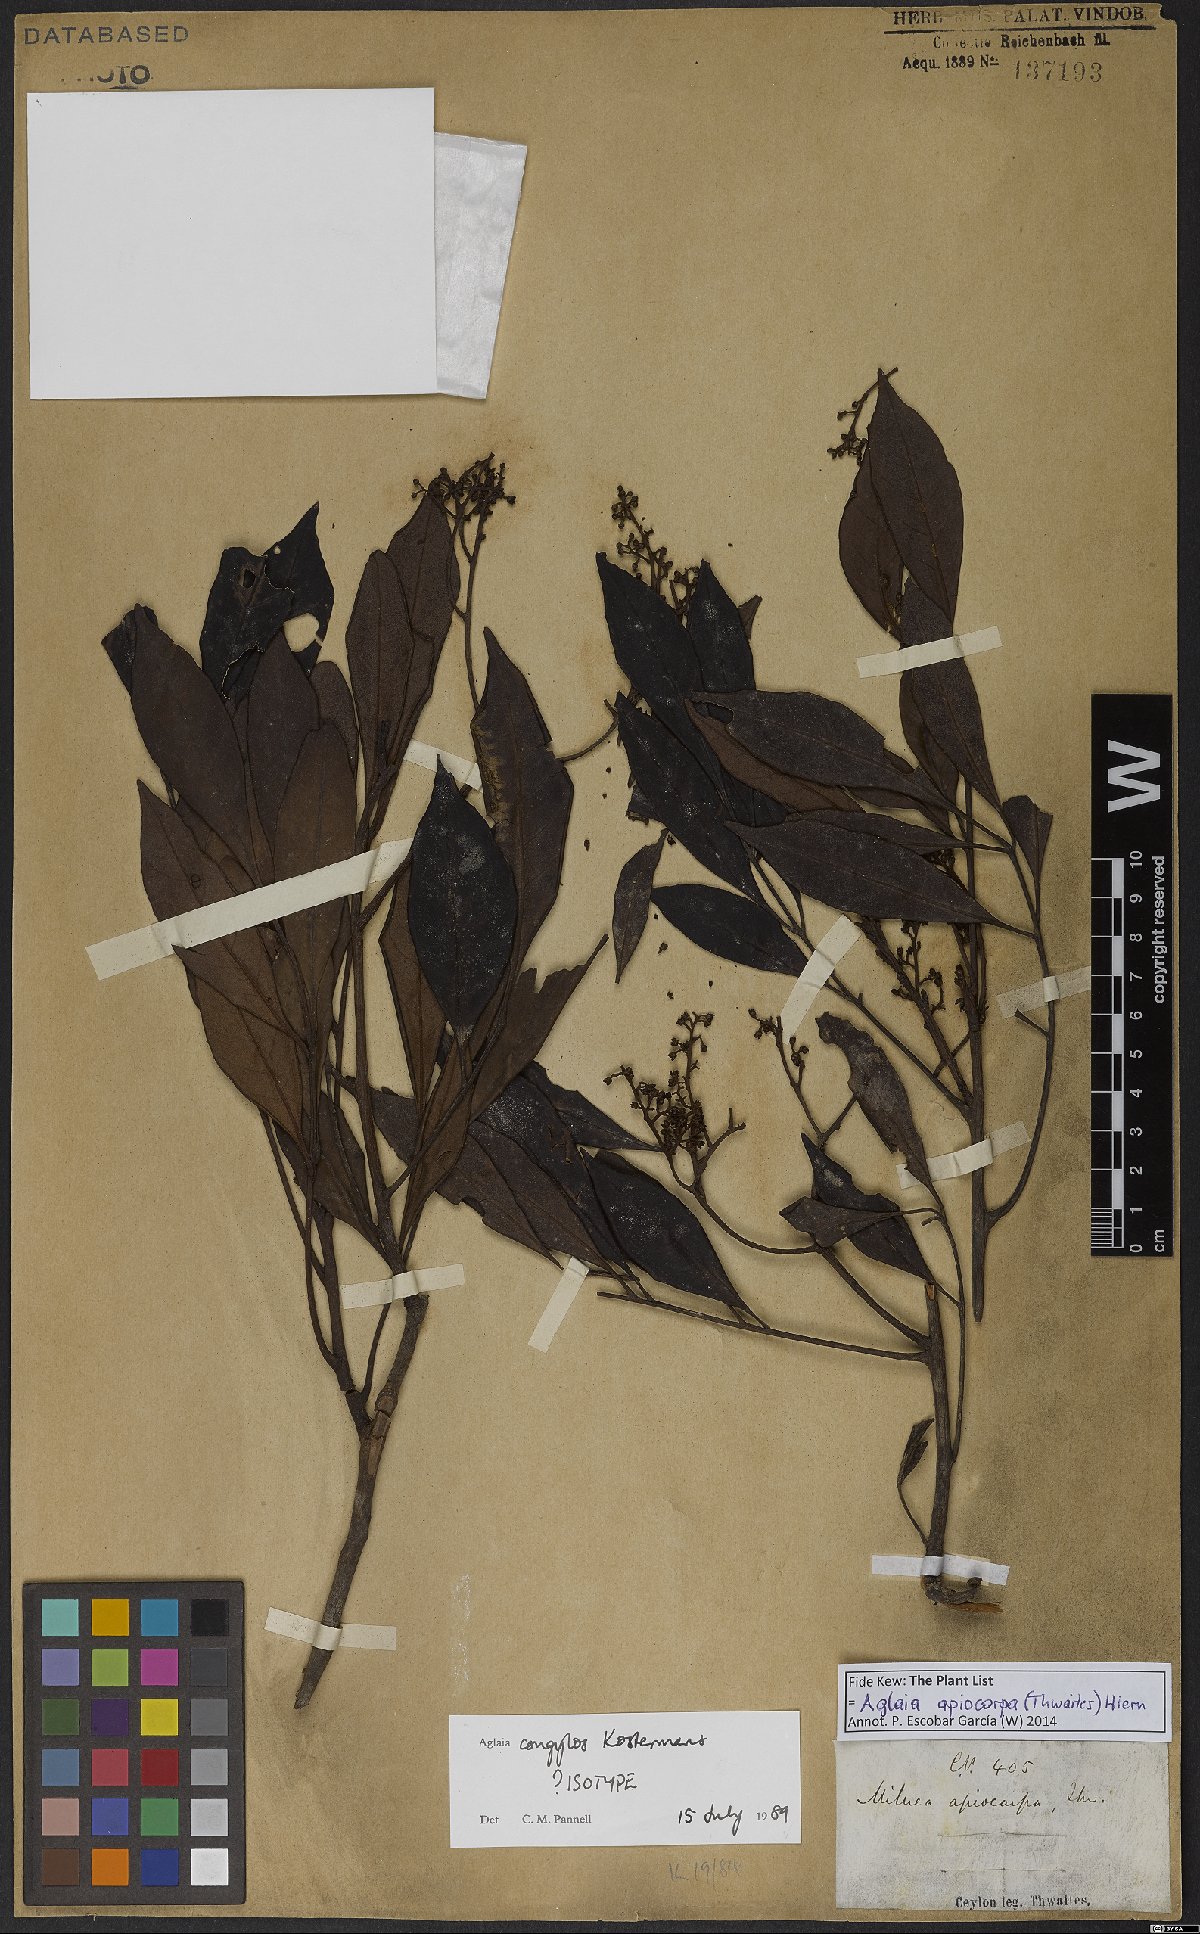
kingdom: Plantae
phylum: Tracheophyta
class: Magnoliopsida
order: Sapindales
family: Meliaceae
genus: Aglaia
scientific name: Aglaia apiocarpa
